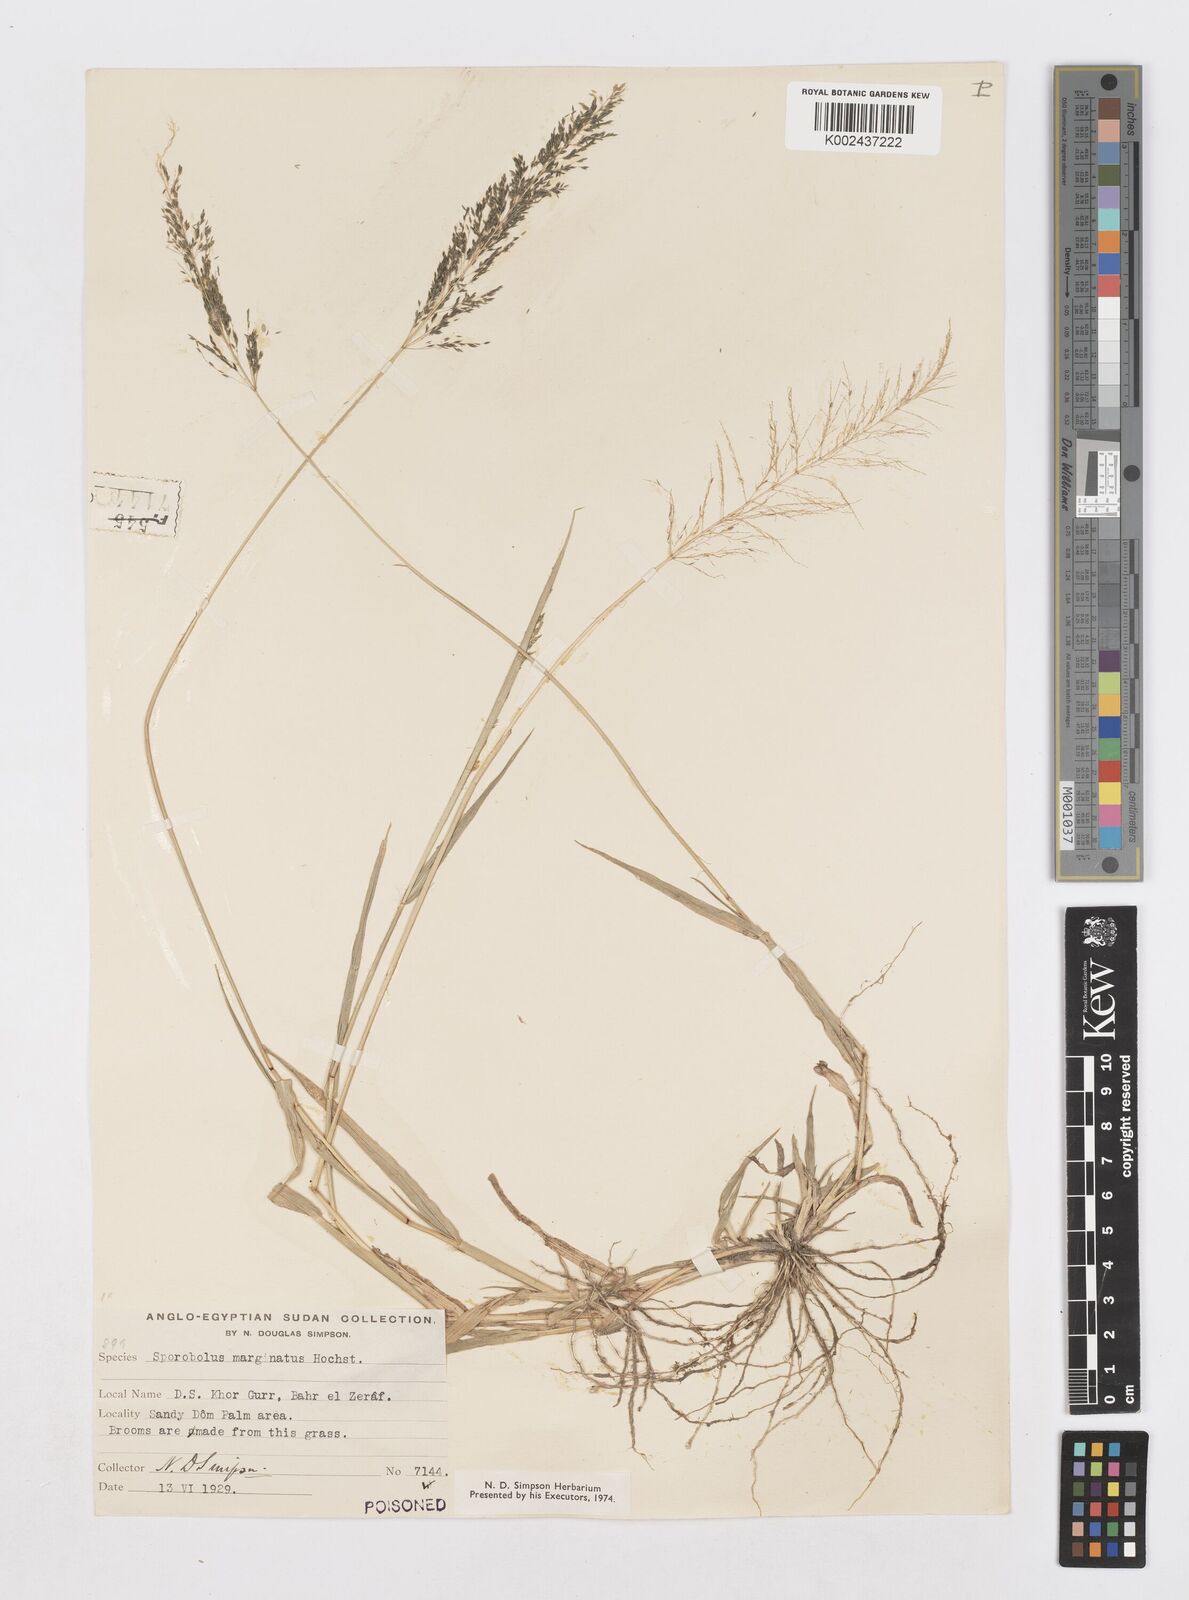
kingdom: Plantae
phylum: Tracheophyta
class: Liliopsida
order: Poales
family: Poaceae
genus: Sporobolus
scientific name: Sporobolus ioclados
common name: Pan dropseed
